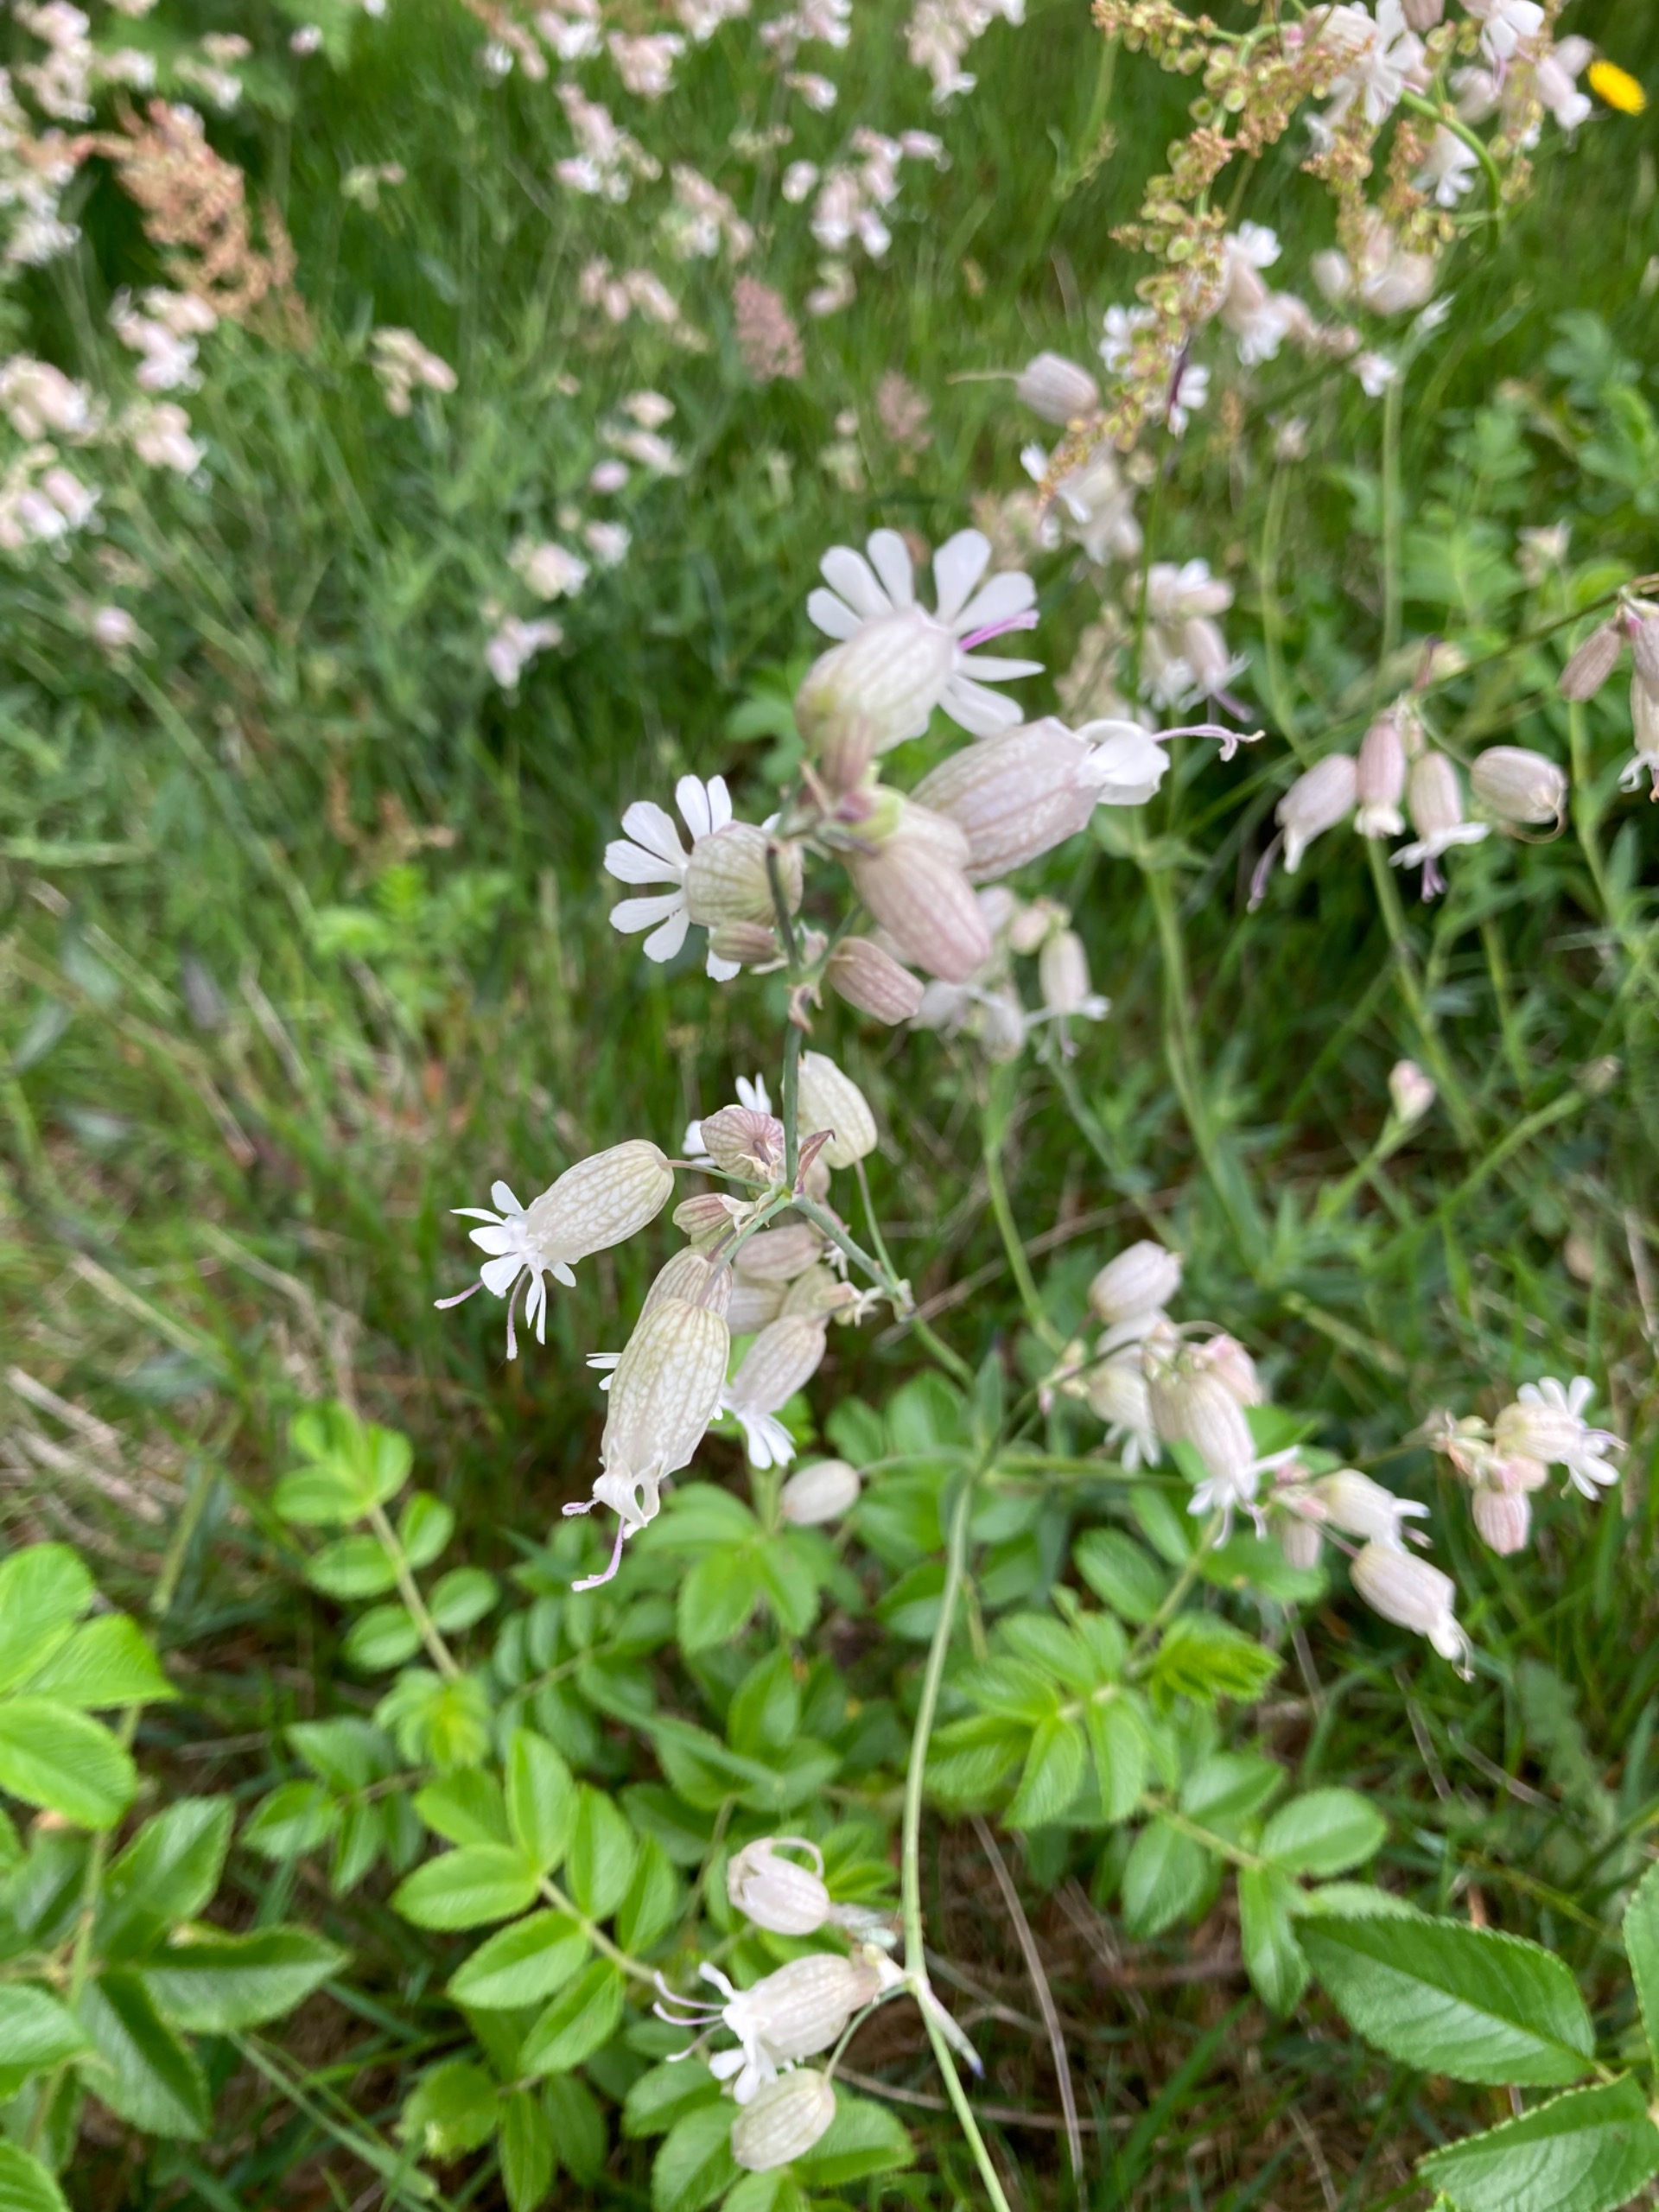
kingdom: Plantae
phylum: Tracheophyta
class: Magnoliopsida
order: Caryophyllales
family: Caryophyllaceae
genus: Silene
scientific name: Silene vulgaris
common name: Blæresmælde
